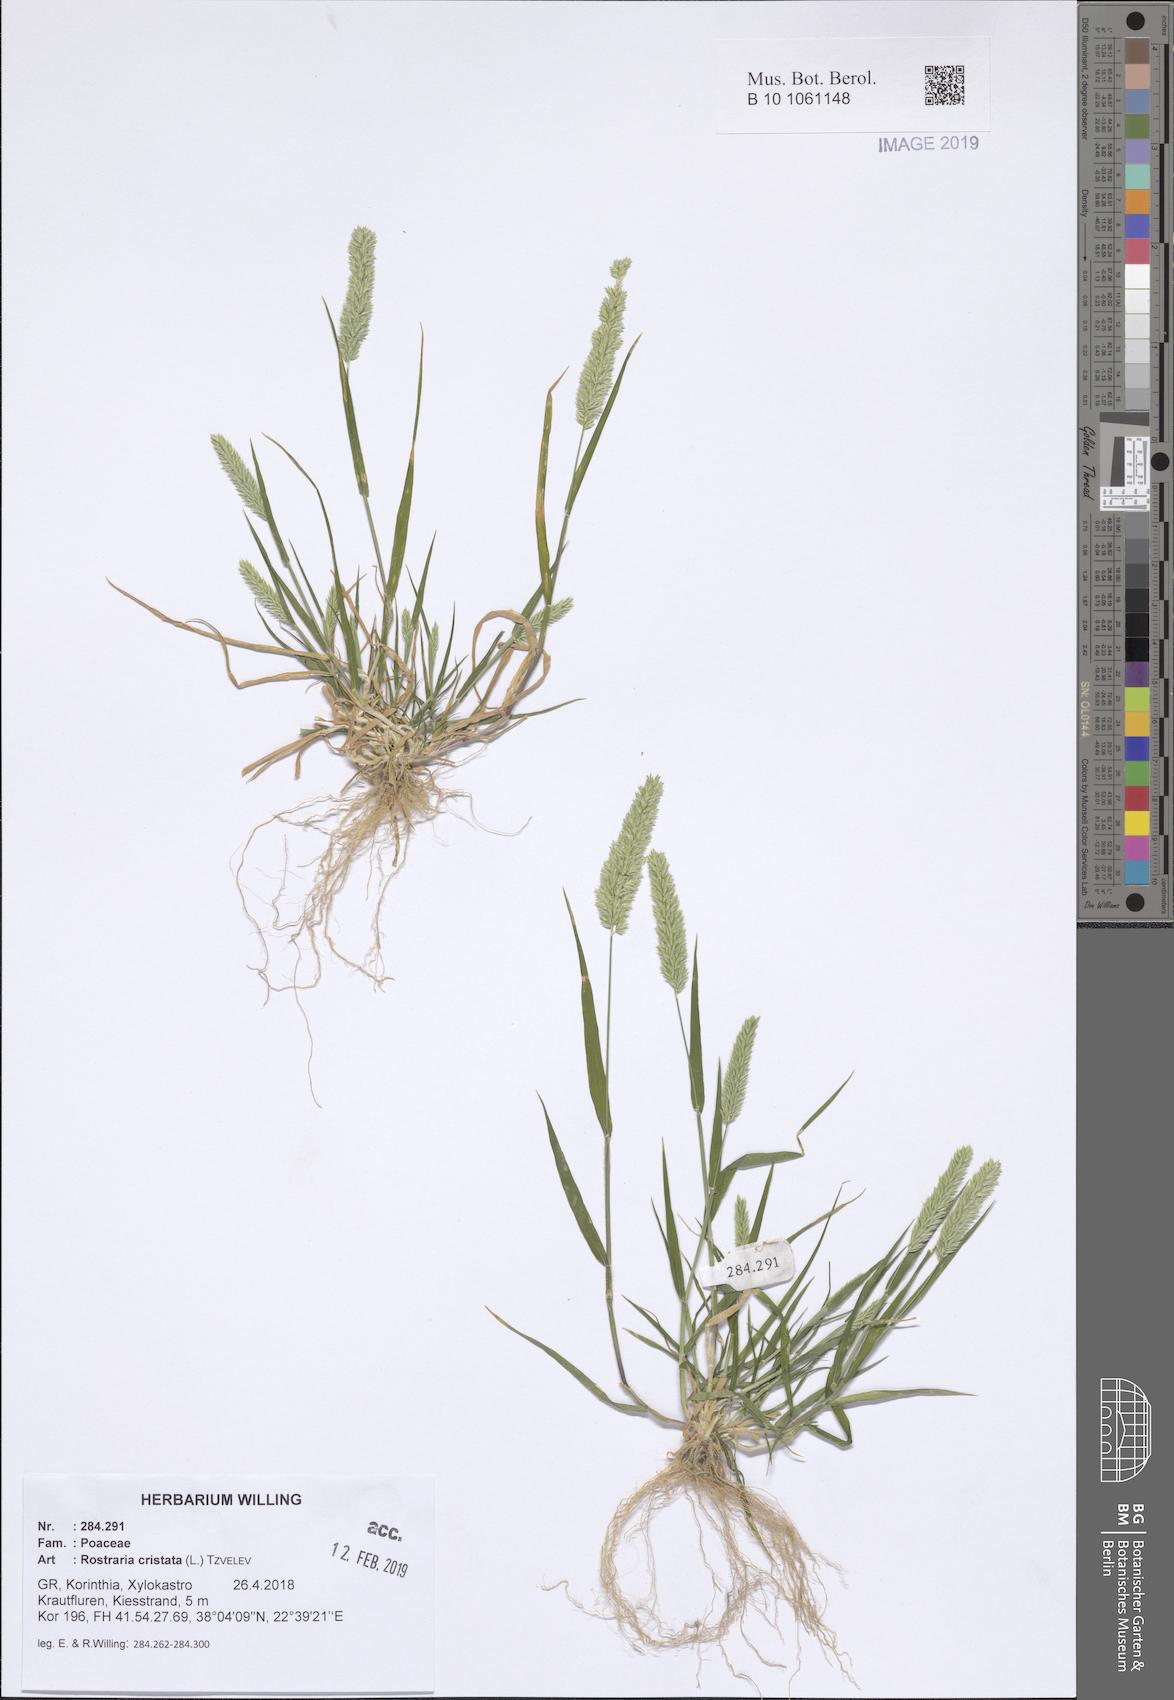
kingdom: Plantae
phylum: Tracheophyta
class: Liliopsida
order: Poales
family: Poaceae
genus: Rostraria
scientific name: Rostraria cristata
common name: Mediterranean hair-grass
